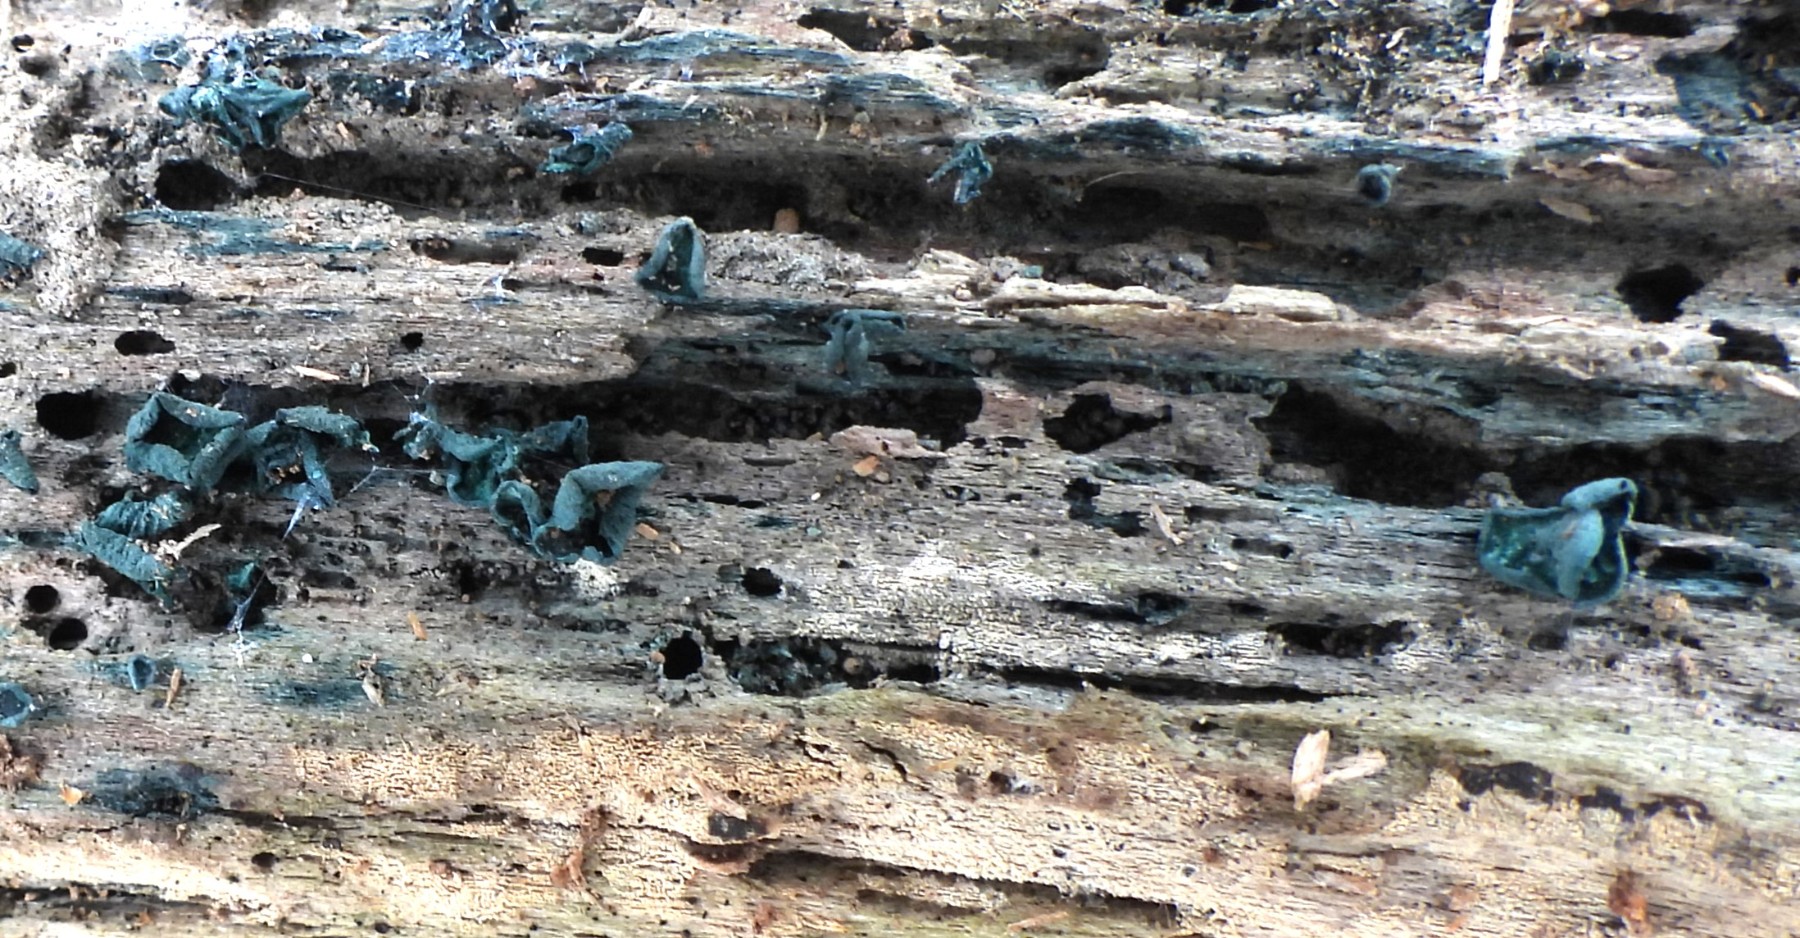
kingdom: Fungi
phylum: Ascomycota
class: Leotiomycetes
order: Helotiales
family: Chlorociboriaceae
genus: Chlorociboria
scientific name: Chlorociboria aeruginascens
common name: almindelig grønskive
